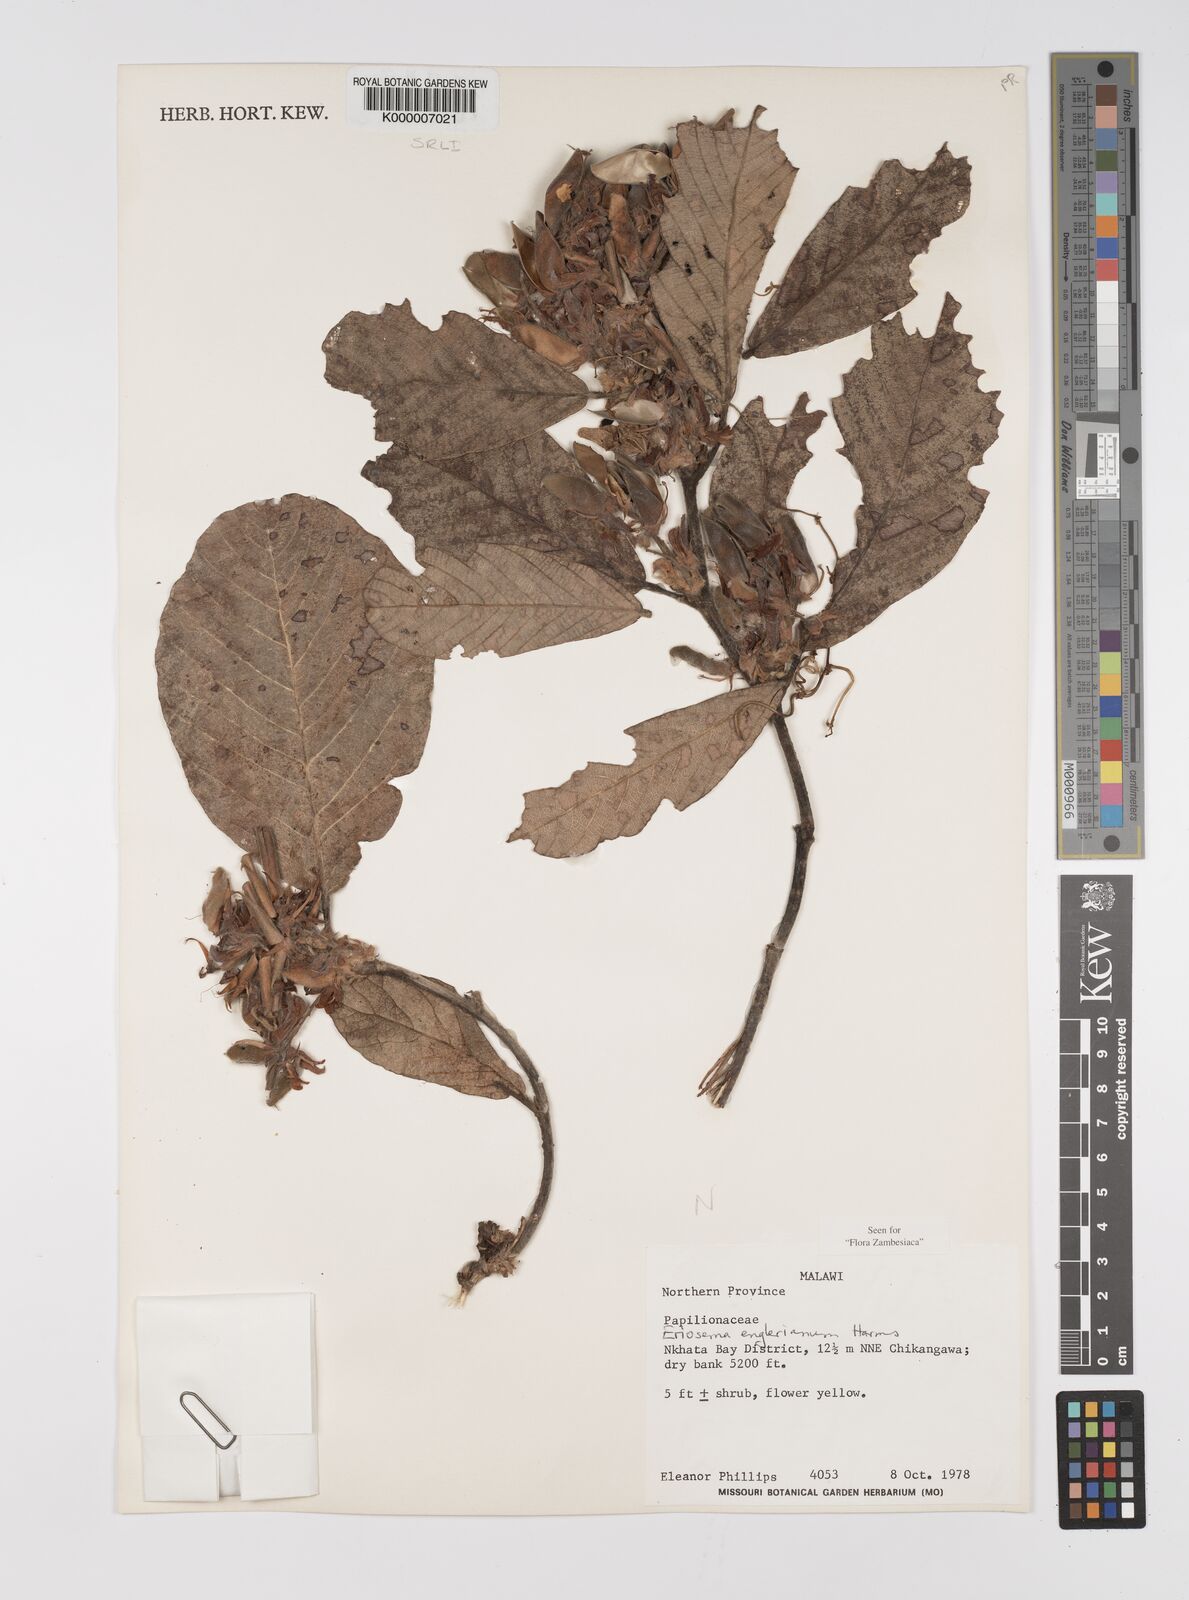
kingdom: Plantae
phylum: Tracheophyta
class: Magnoliopsida
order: Fabales
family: Fabaceae
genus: Eriosema
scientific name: Eriosema englerianum
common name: Blue bush
